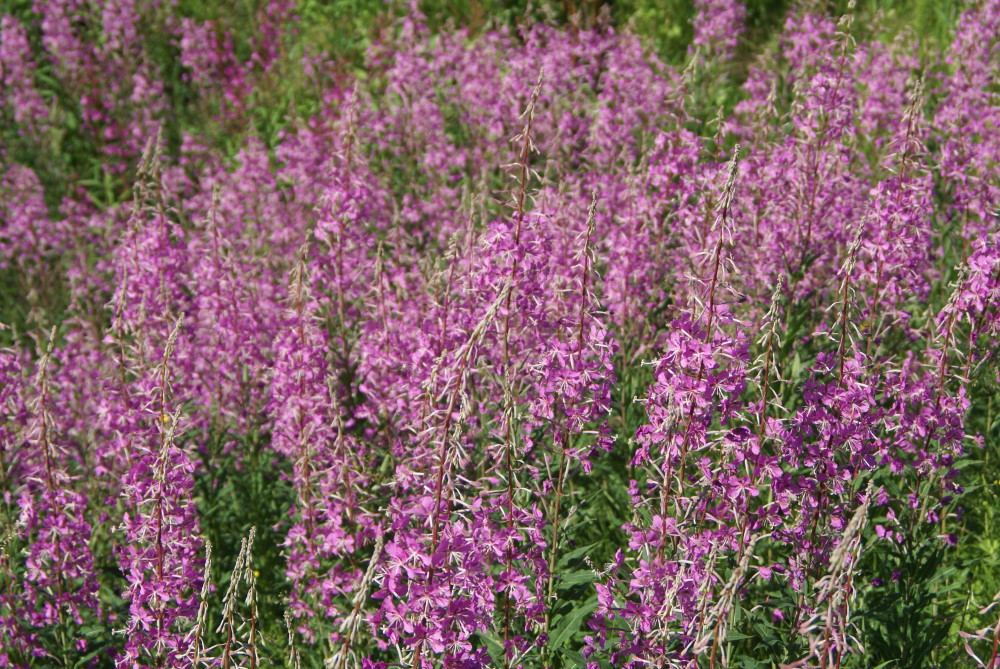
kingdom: Plantae
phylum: Tracheophyta
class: Magnoliopsida
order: Myrtales
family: Onagraceae
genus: Chamaenerion
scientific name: Chamaenerion angustifolium
